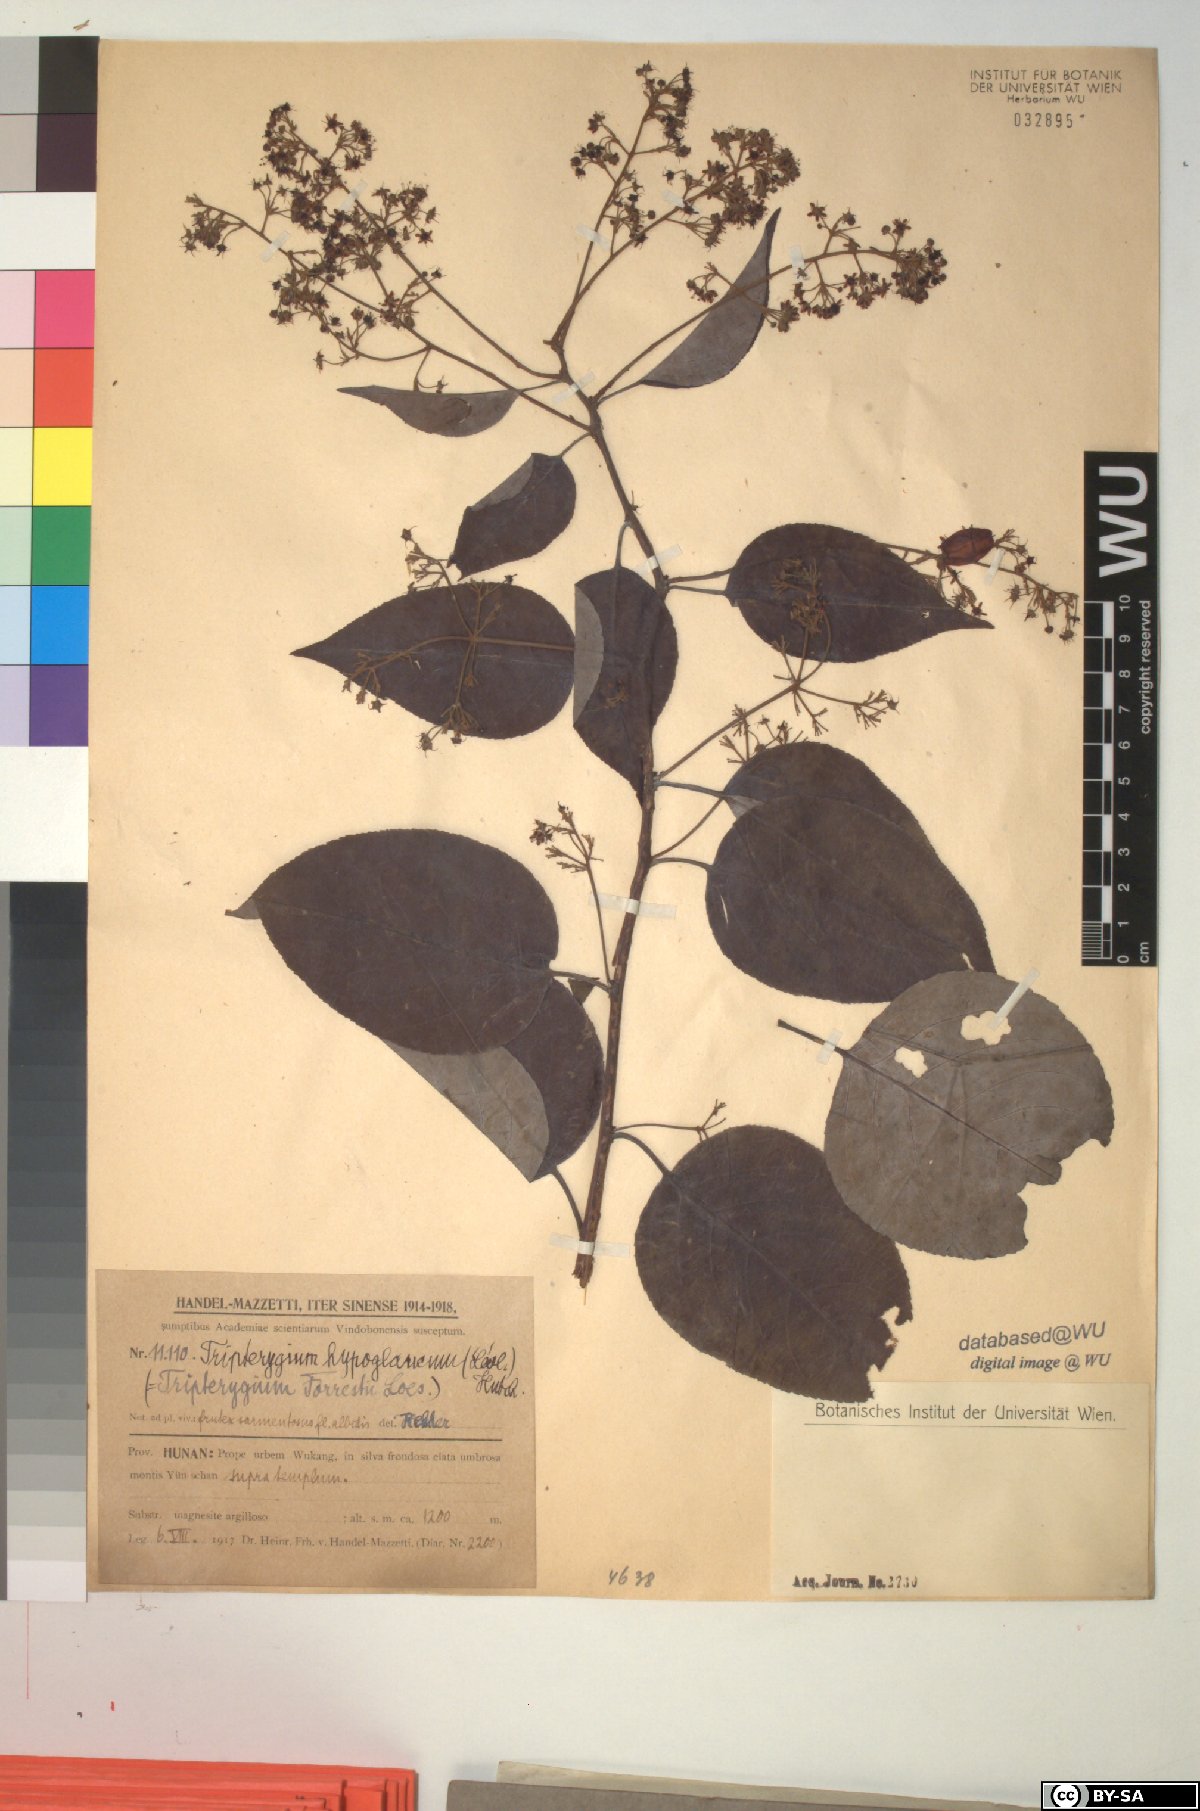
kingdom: Plantae
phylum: Tracheophyta
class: Magnoliopsida
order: Celastrales
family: Celastraceae
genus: Tripterygium
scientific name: Tripterygium wilfordii
